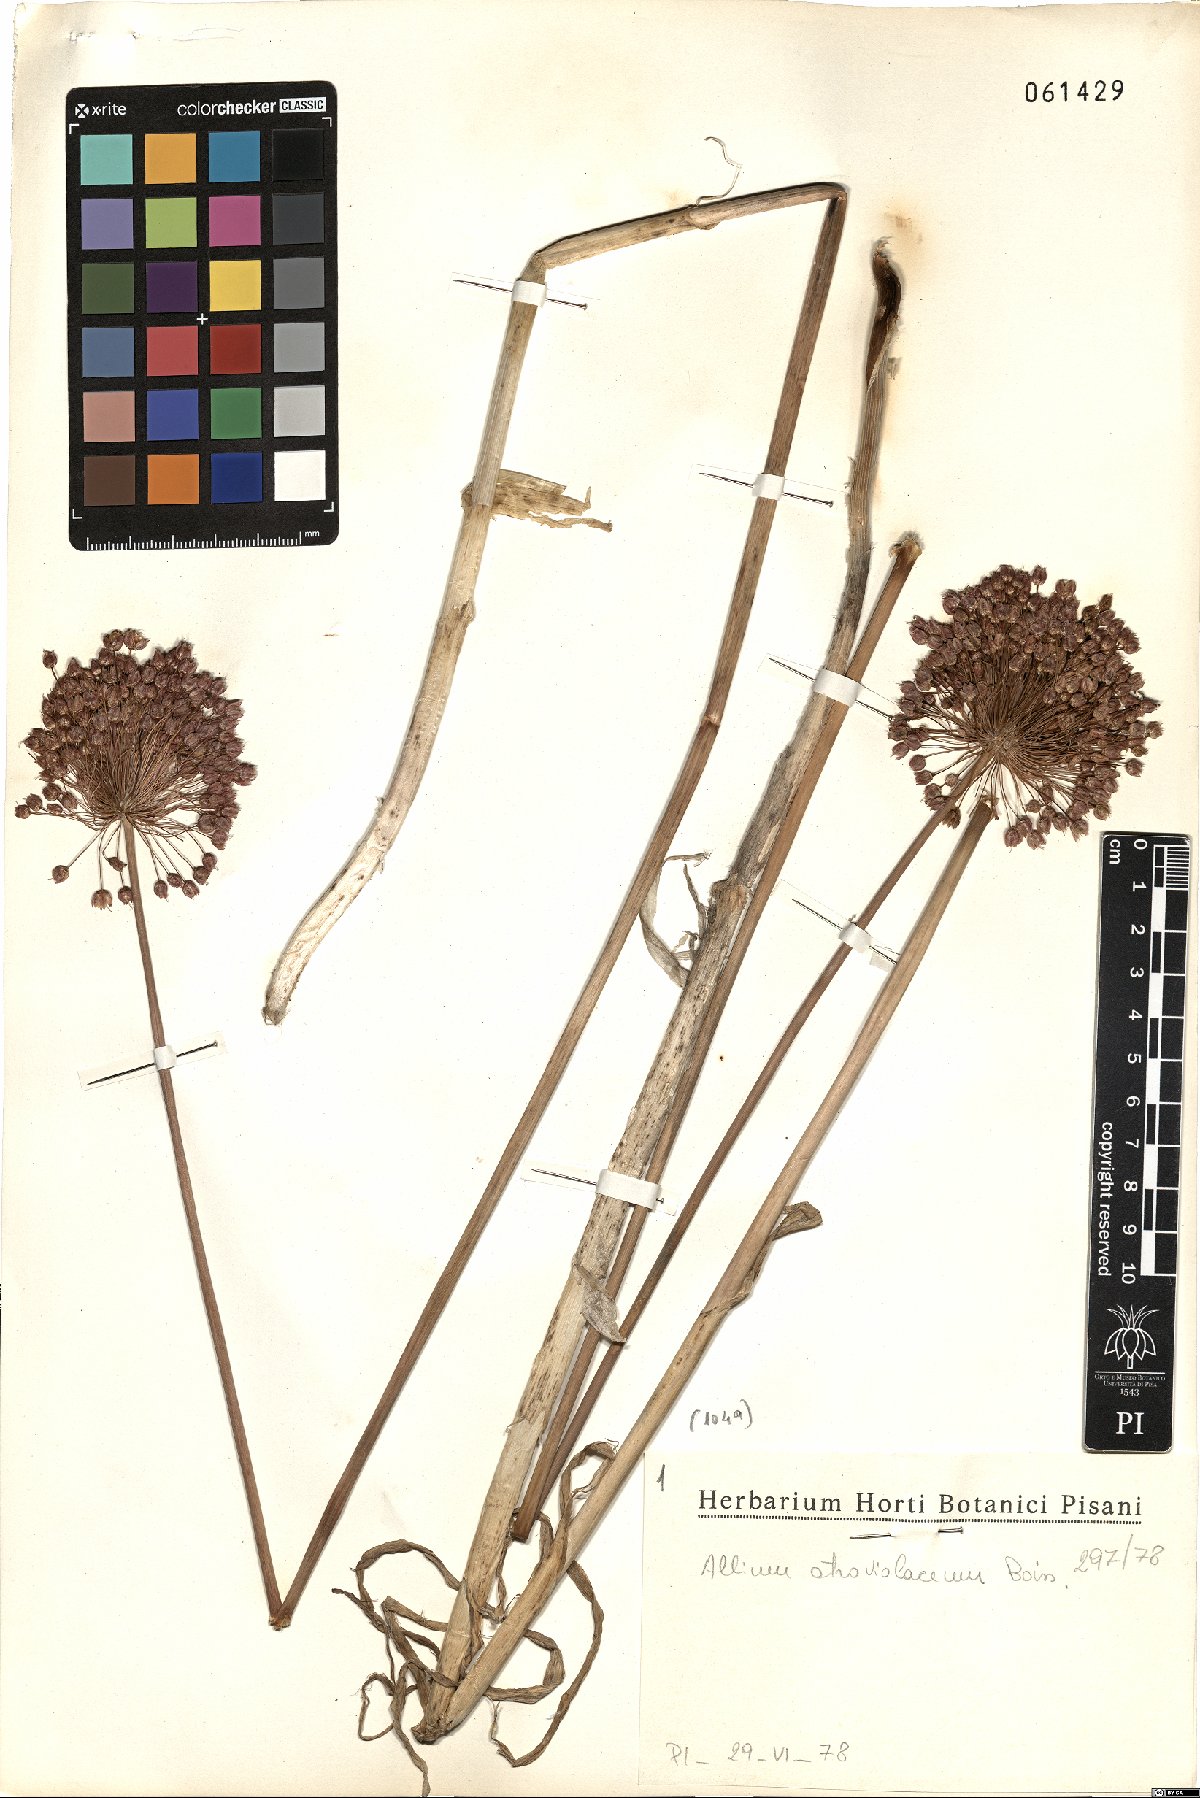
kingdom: Plantae
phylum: Tracheophyta
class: Liliopsida
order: Asparagales
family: Amaryllidaceae
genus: Allium
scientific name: Allium atroviolaceum
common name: Broadleaf wild leek
